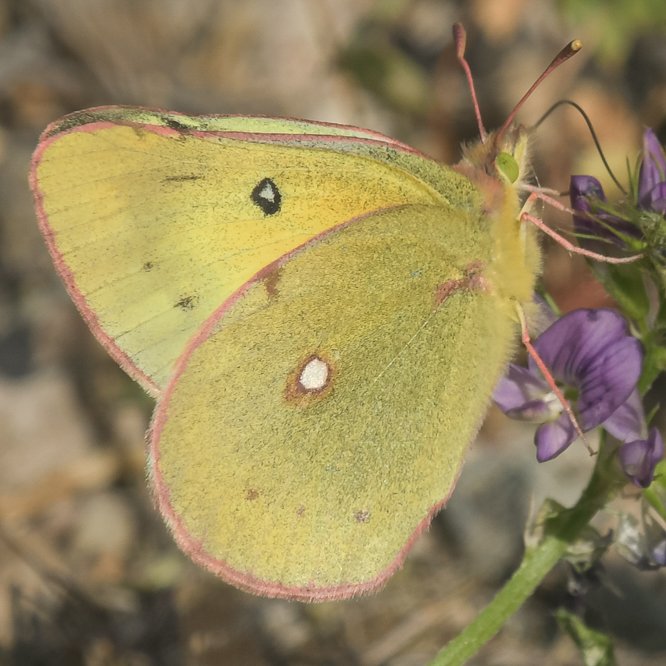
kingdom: Animalia
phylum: Arthropoda
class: Insecta
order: Lepidoptera
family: Pieridae
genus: Colias
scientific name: Colias philodice
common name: Clouded Sulphur
